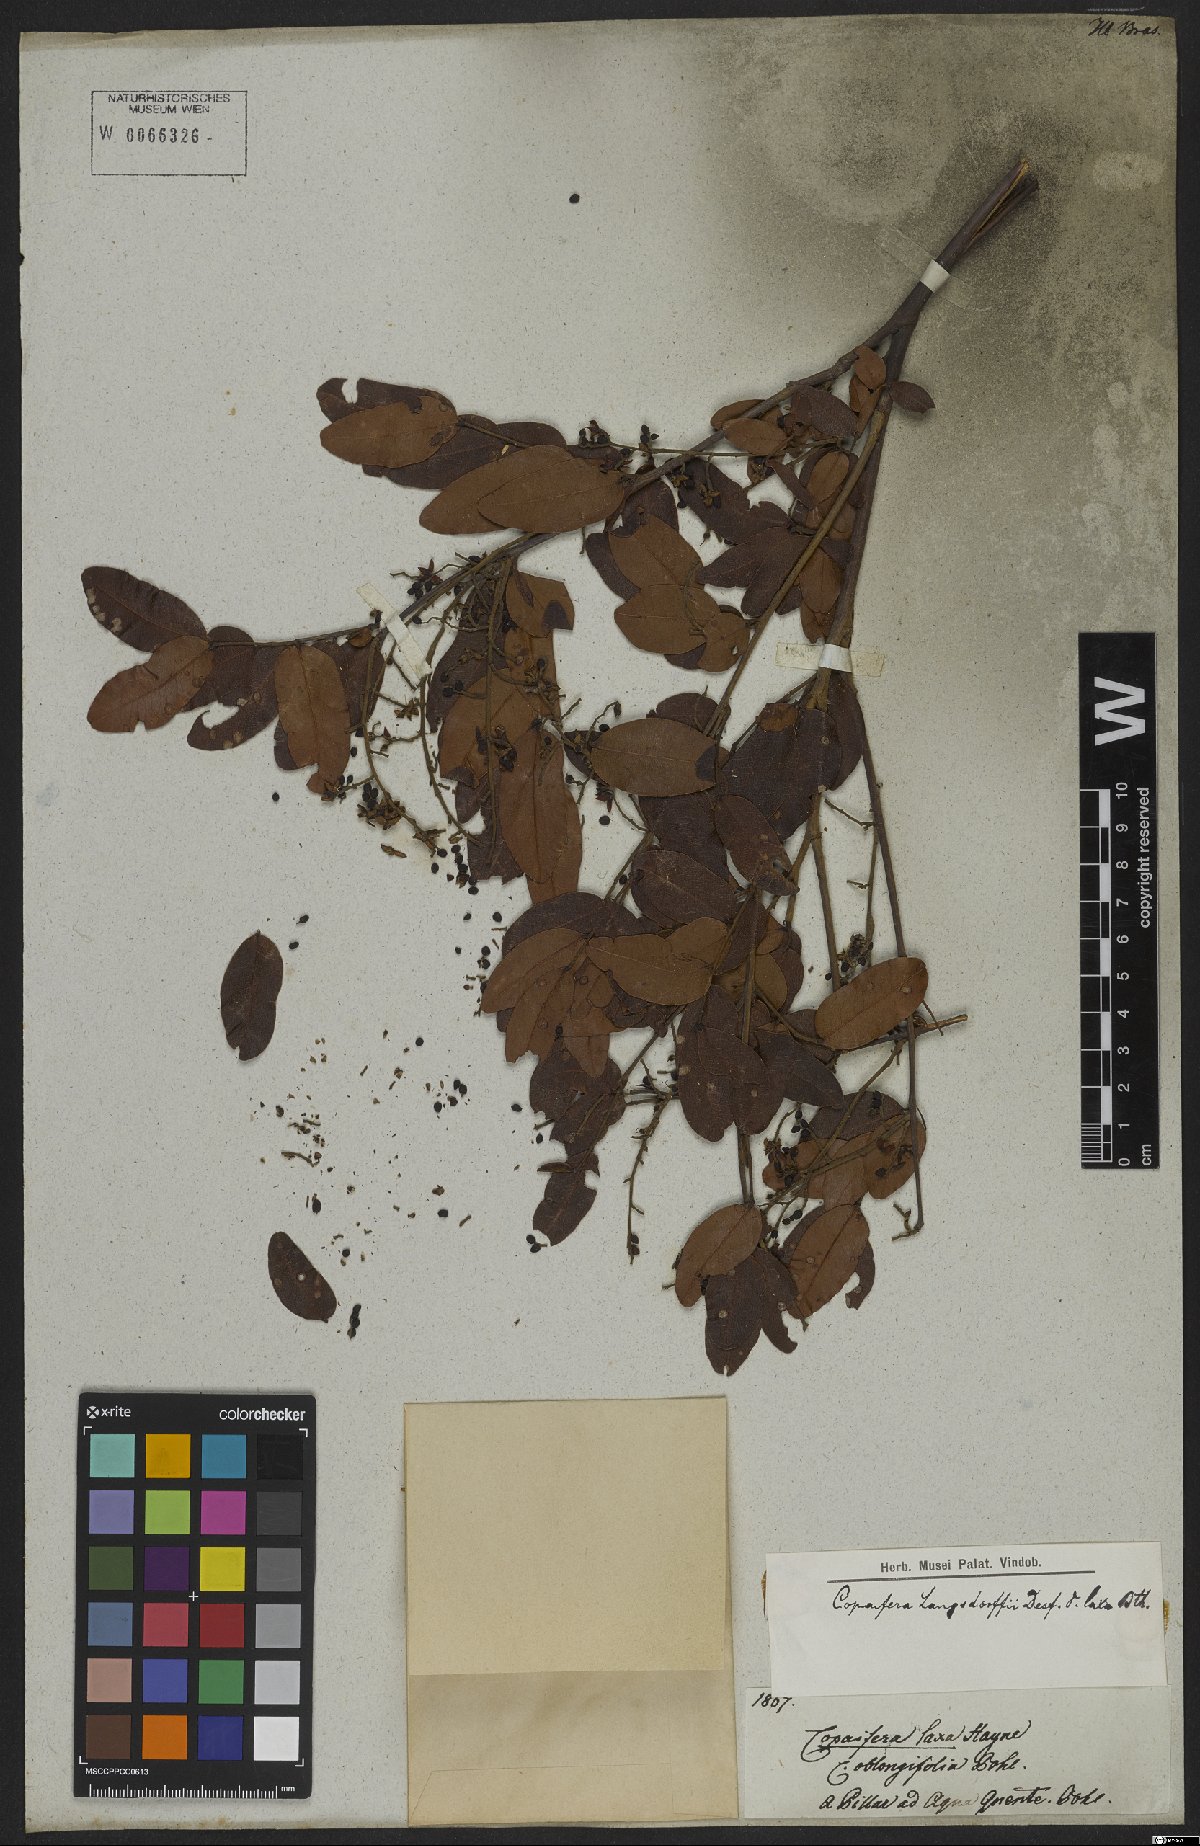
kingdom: Plantae
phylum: Tracheophyta
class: Magnoliopsida
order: Fabales
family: Fabaceae
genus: Copaifera
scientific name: Copaifera langsdorffii
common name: Brazilian diesel tree
